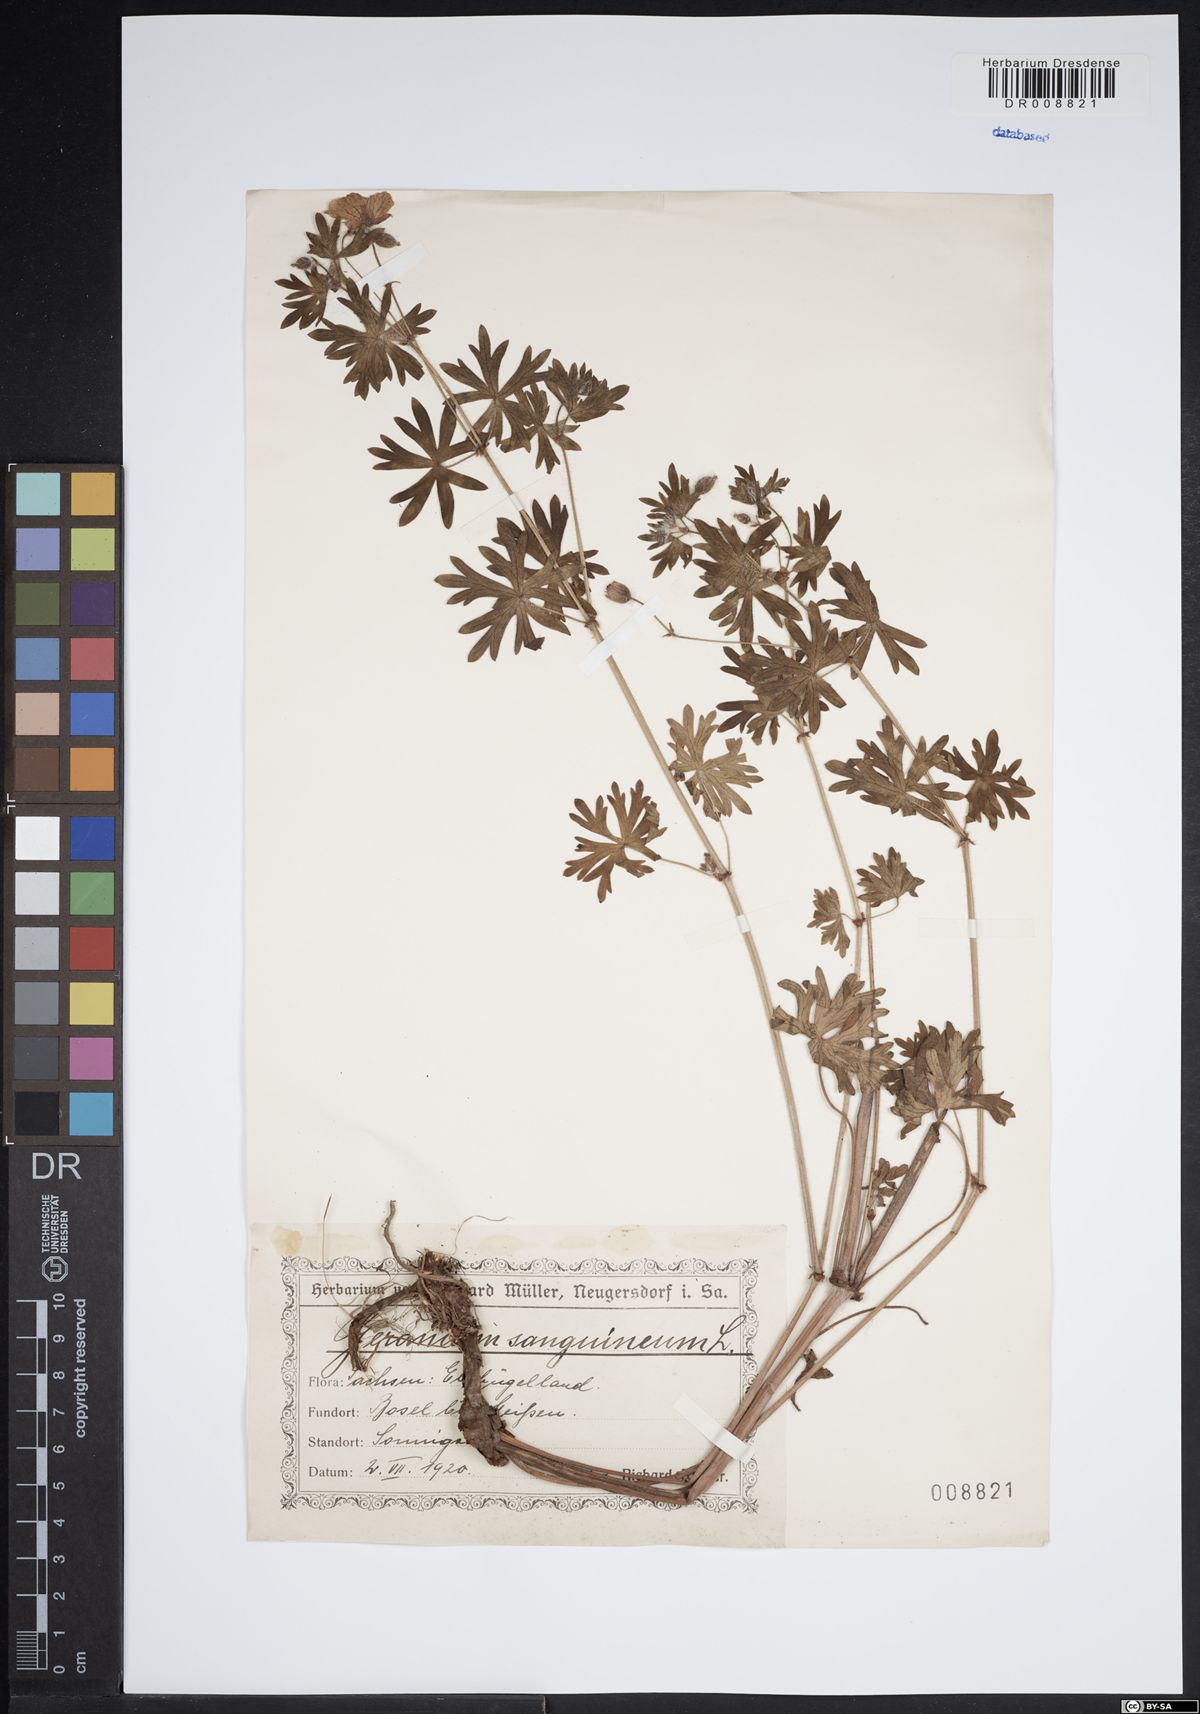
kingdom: Plantae
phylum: Tracheophyta
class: Magnoliopsida
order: Geraniales
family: Geraniaceae
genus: Geranium
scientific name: Geranium sanguineum
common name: Bloody crane's-bill
